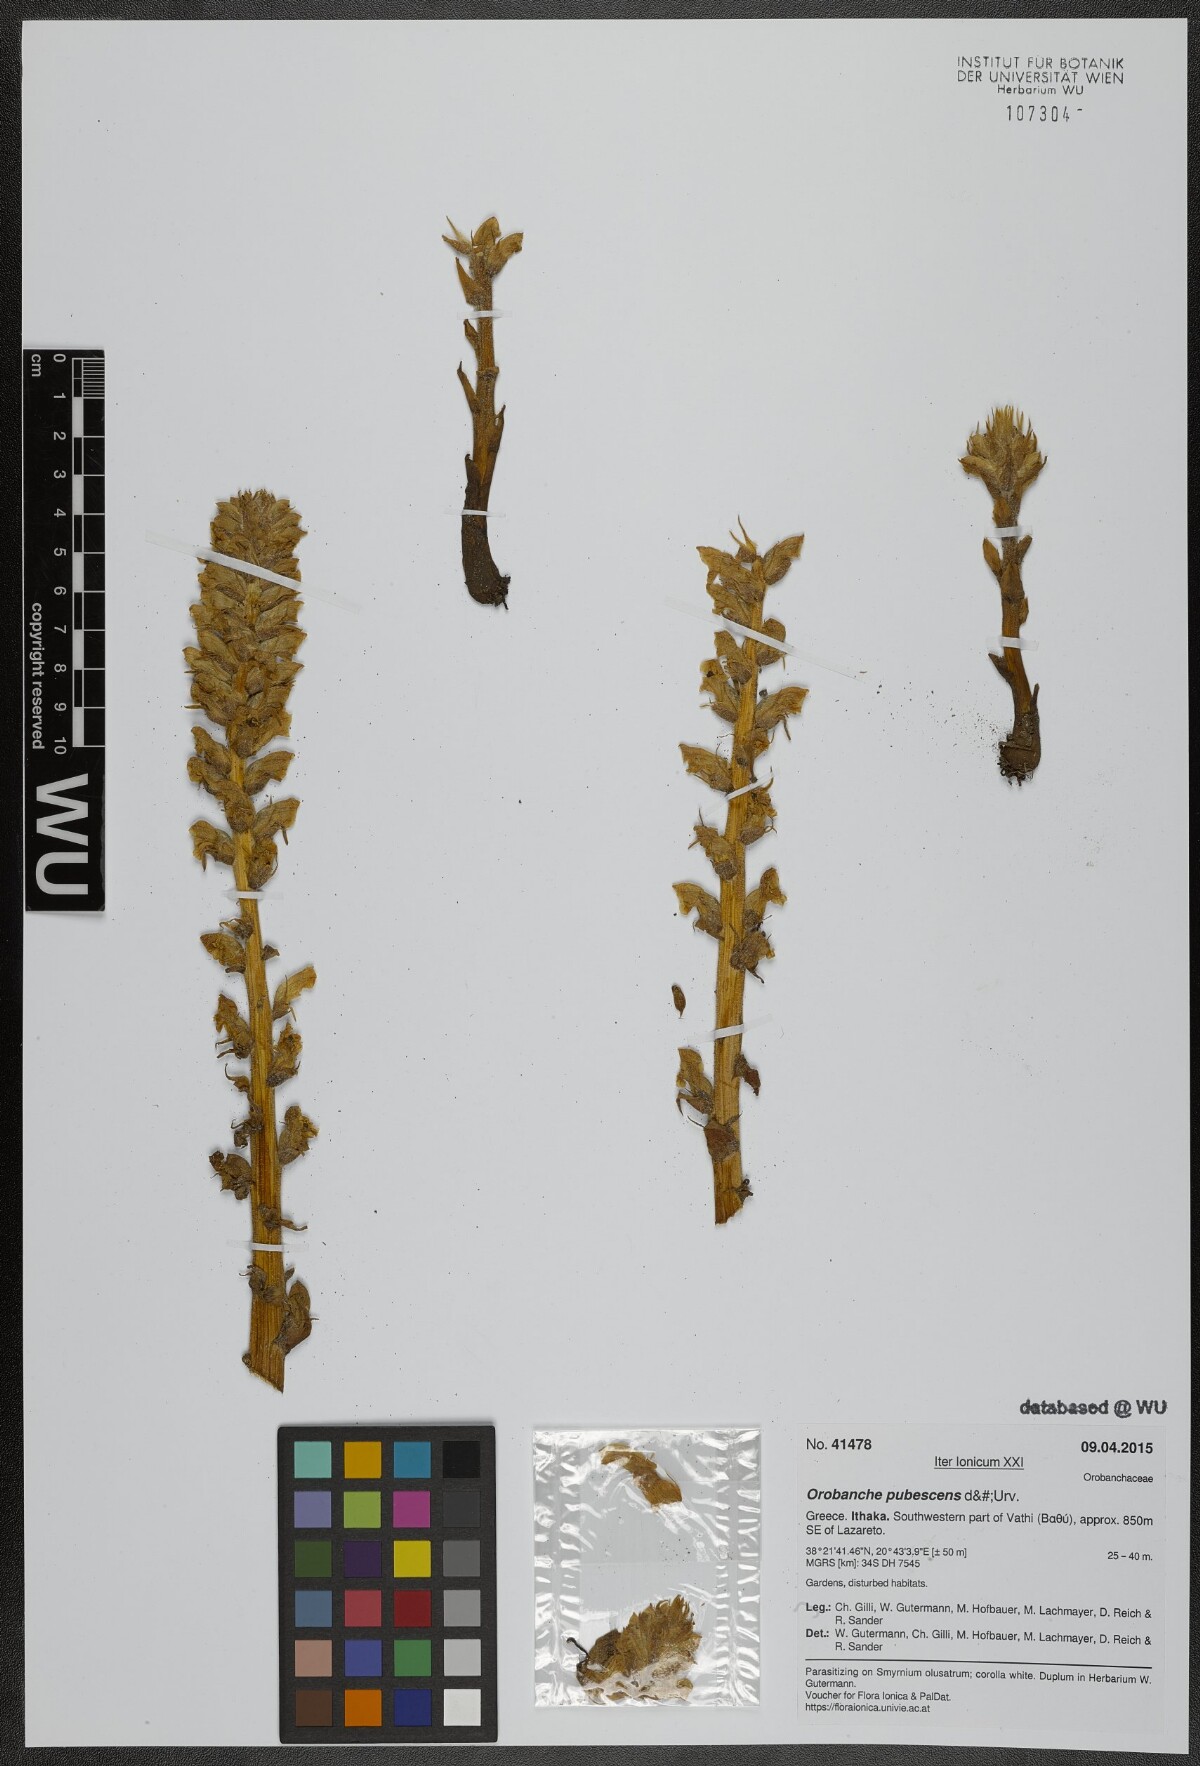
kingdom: Plantae
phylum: Tracheophyta
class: Magnoliopsida
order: Lamiales
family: Orobanchaceae
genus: Orobanche
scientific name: Orobanche pubescens
